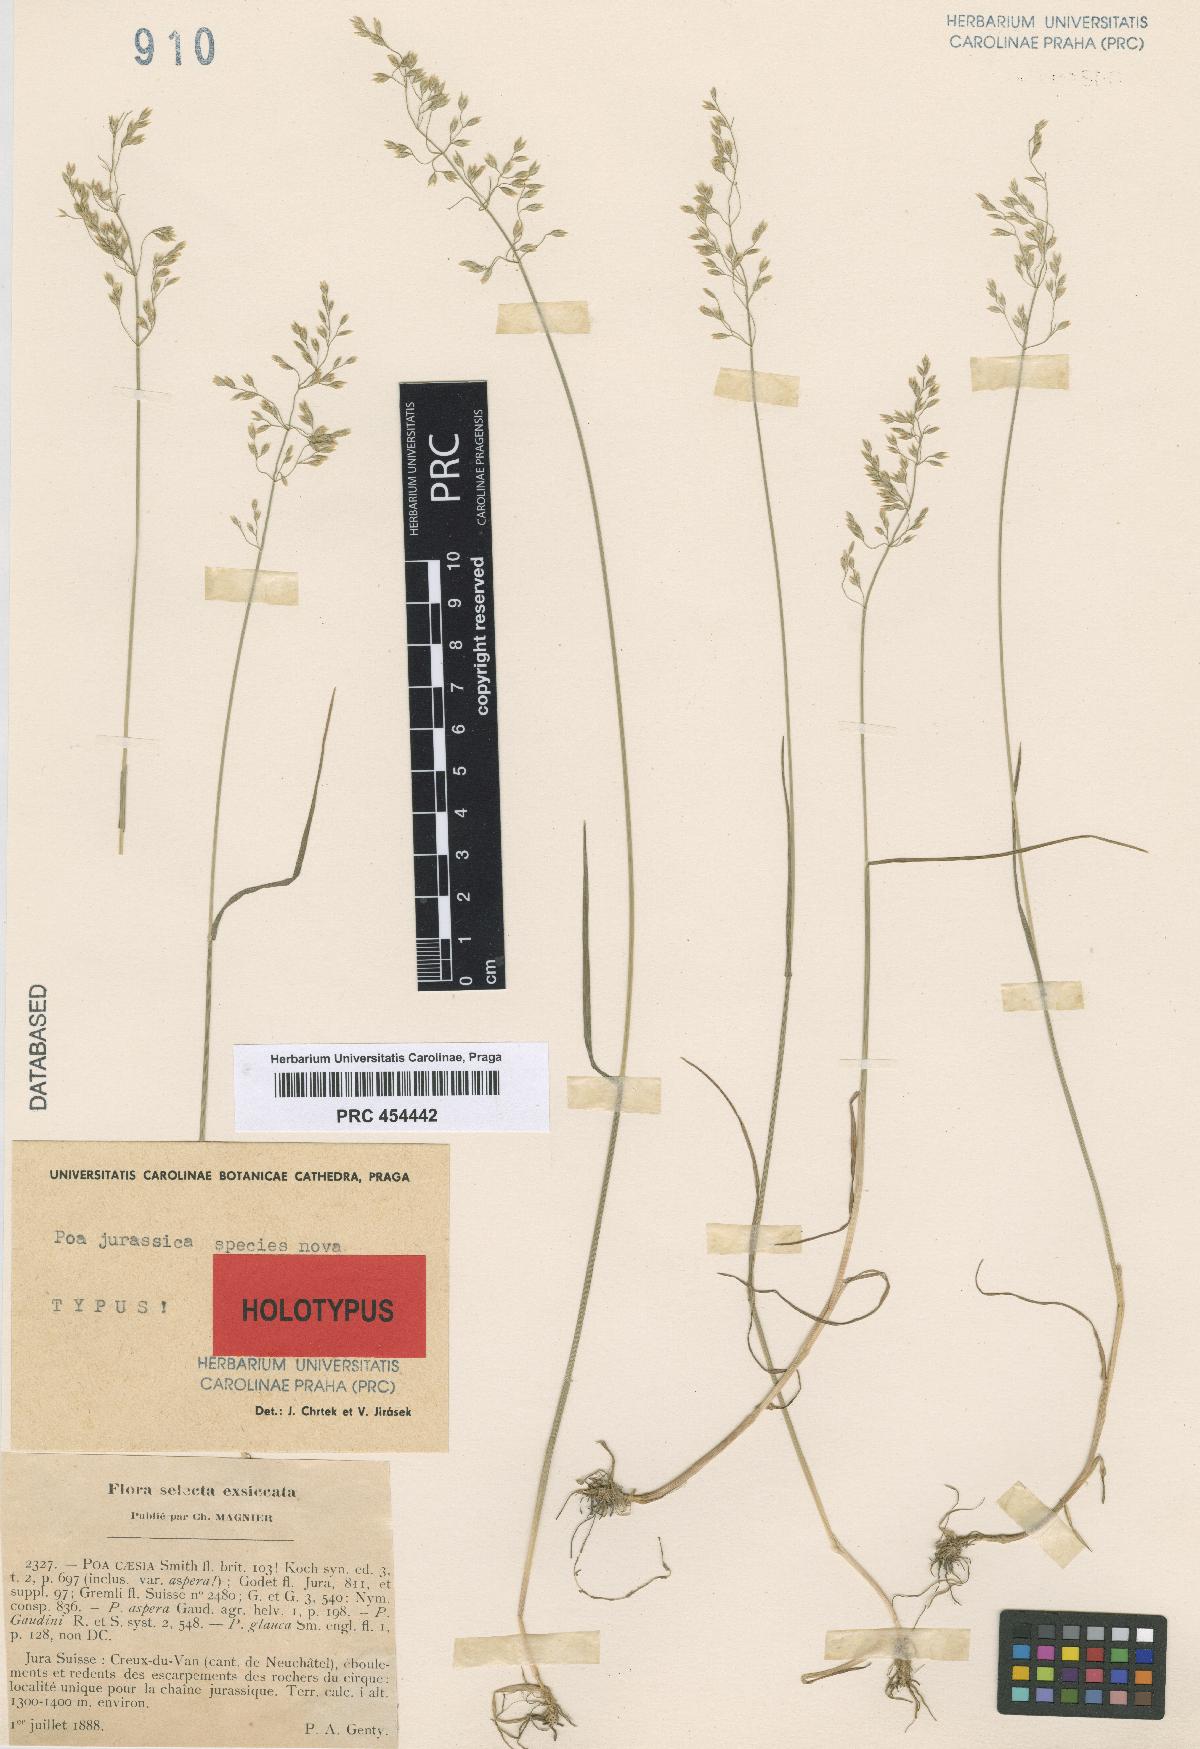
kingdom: Plantae
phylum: Tracheophyta
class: Liliopsida
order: Poales
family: Poaceae
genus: Poa
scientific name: Poa jurassica
